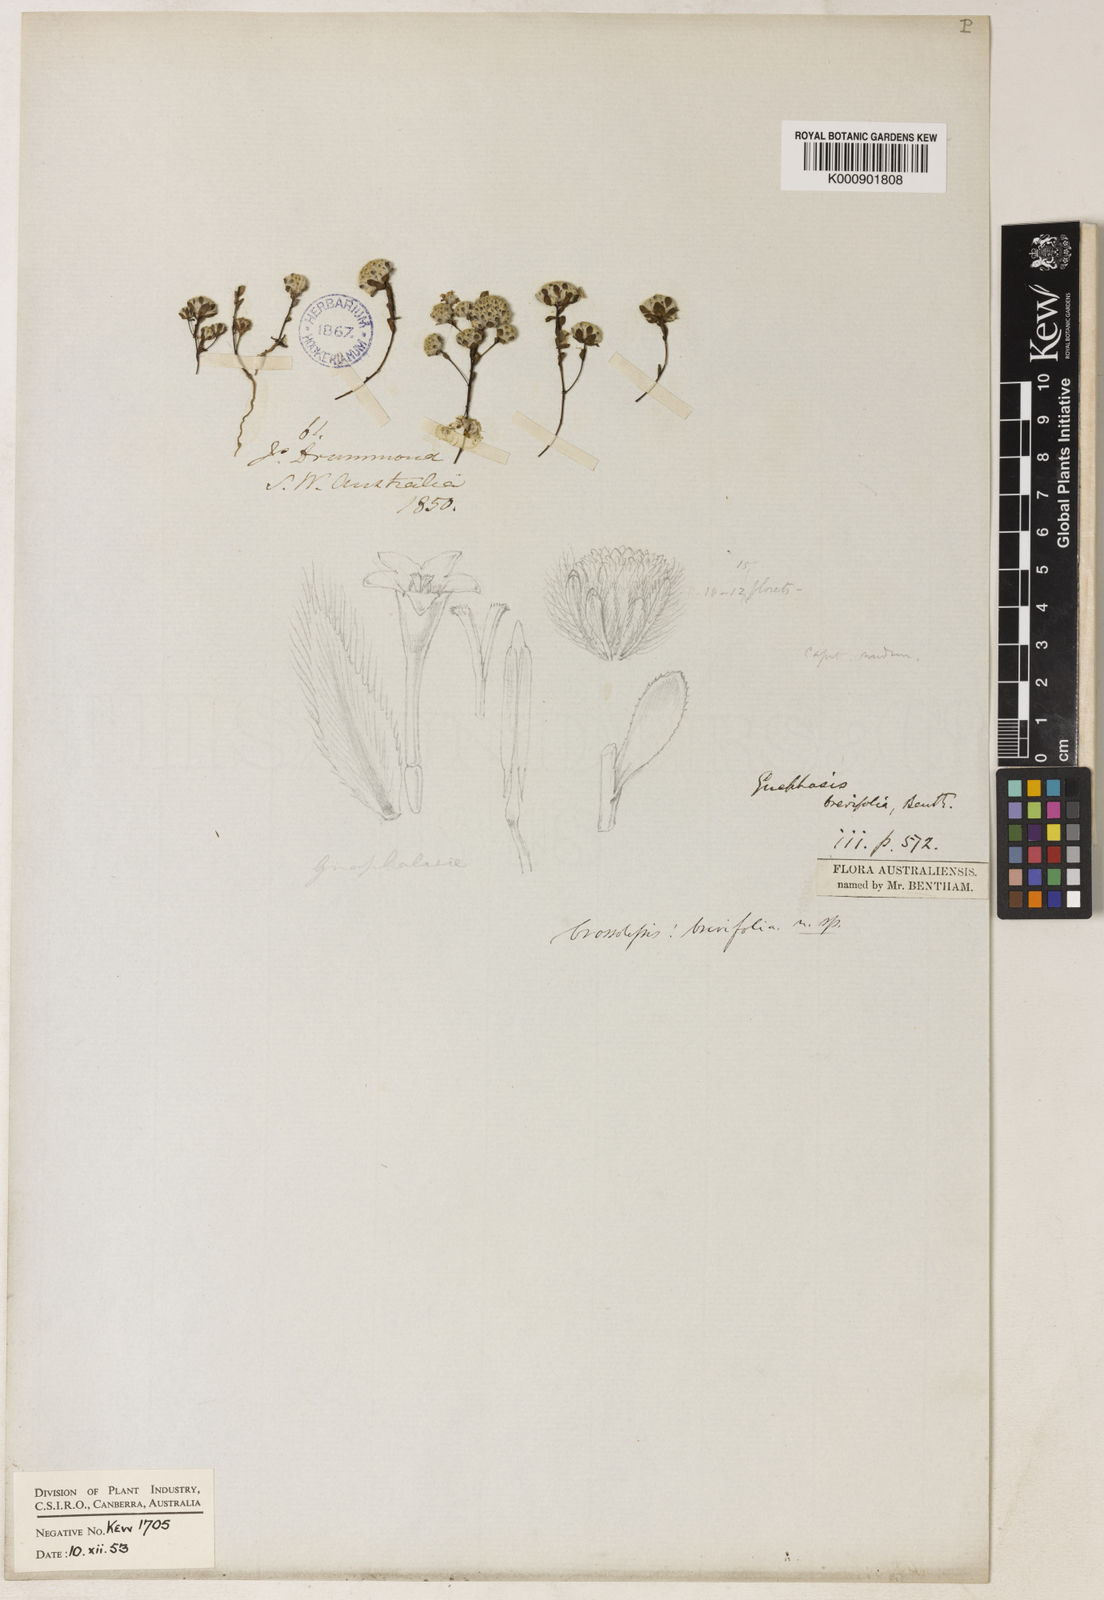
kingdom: Plantae
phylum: Tracheophyta
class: Magnoliopsida
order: Asterales
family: Asteraceae
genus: Gnephosis
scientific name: Gnephosis brevifolia
